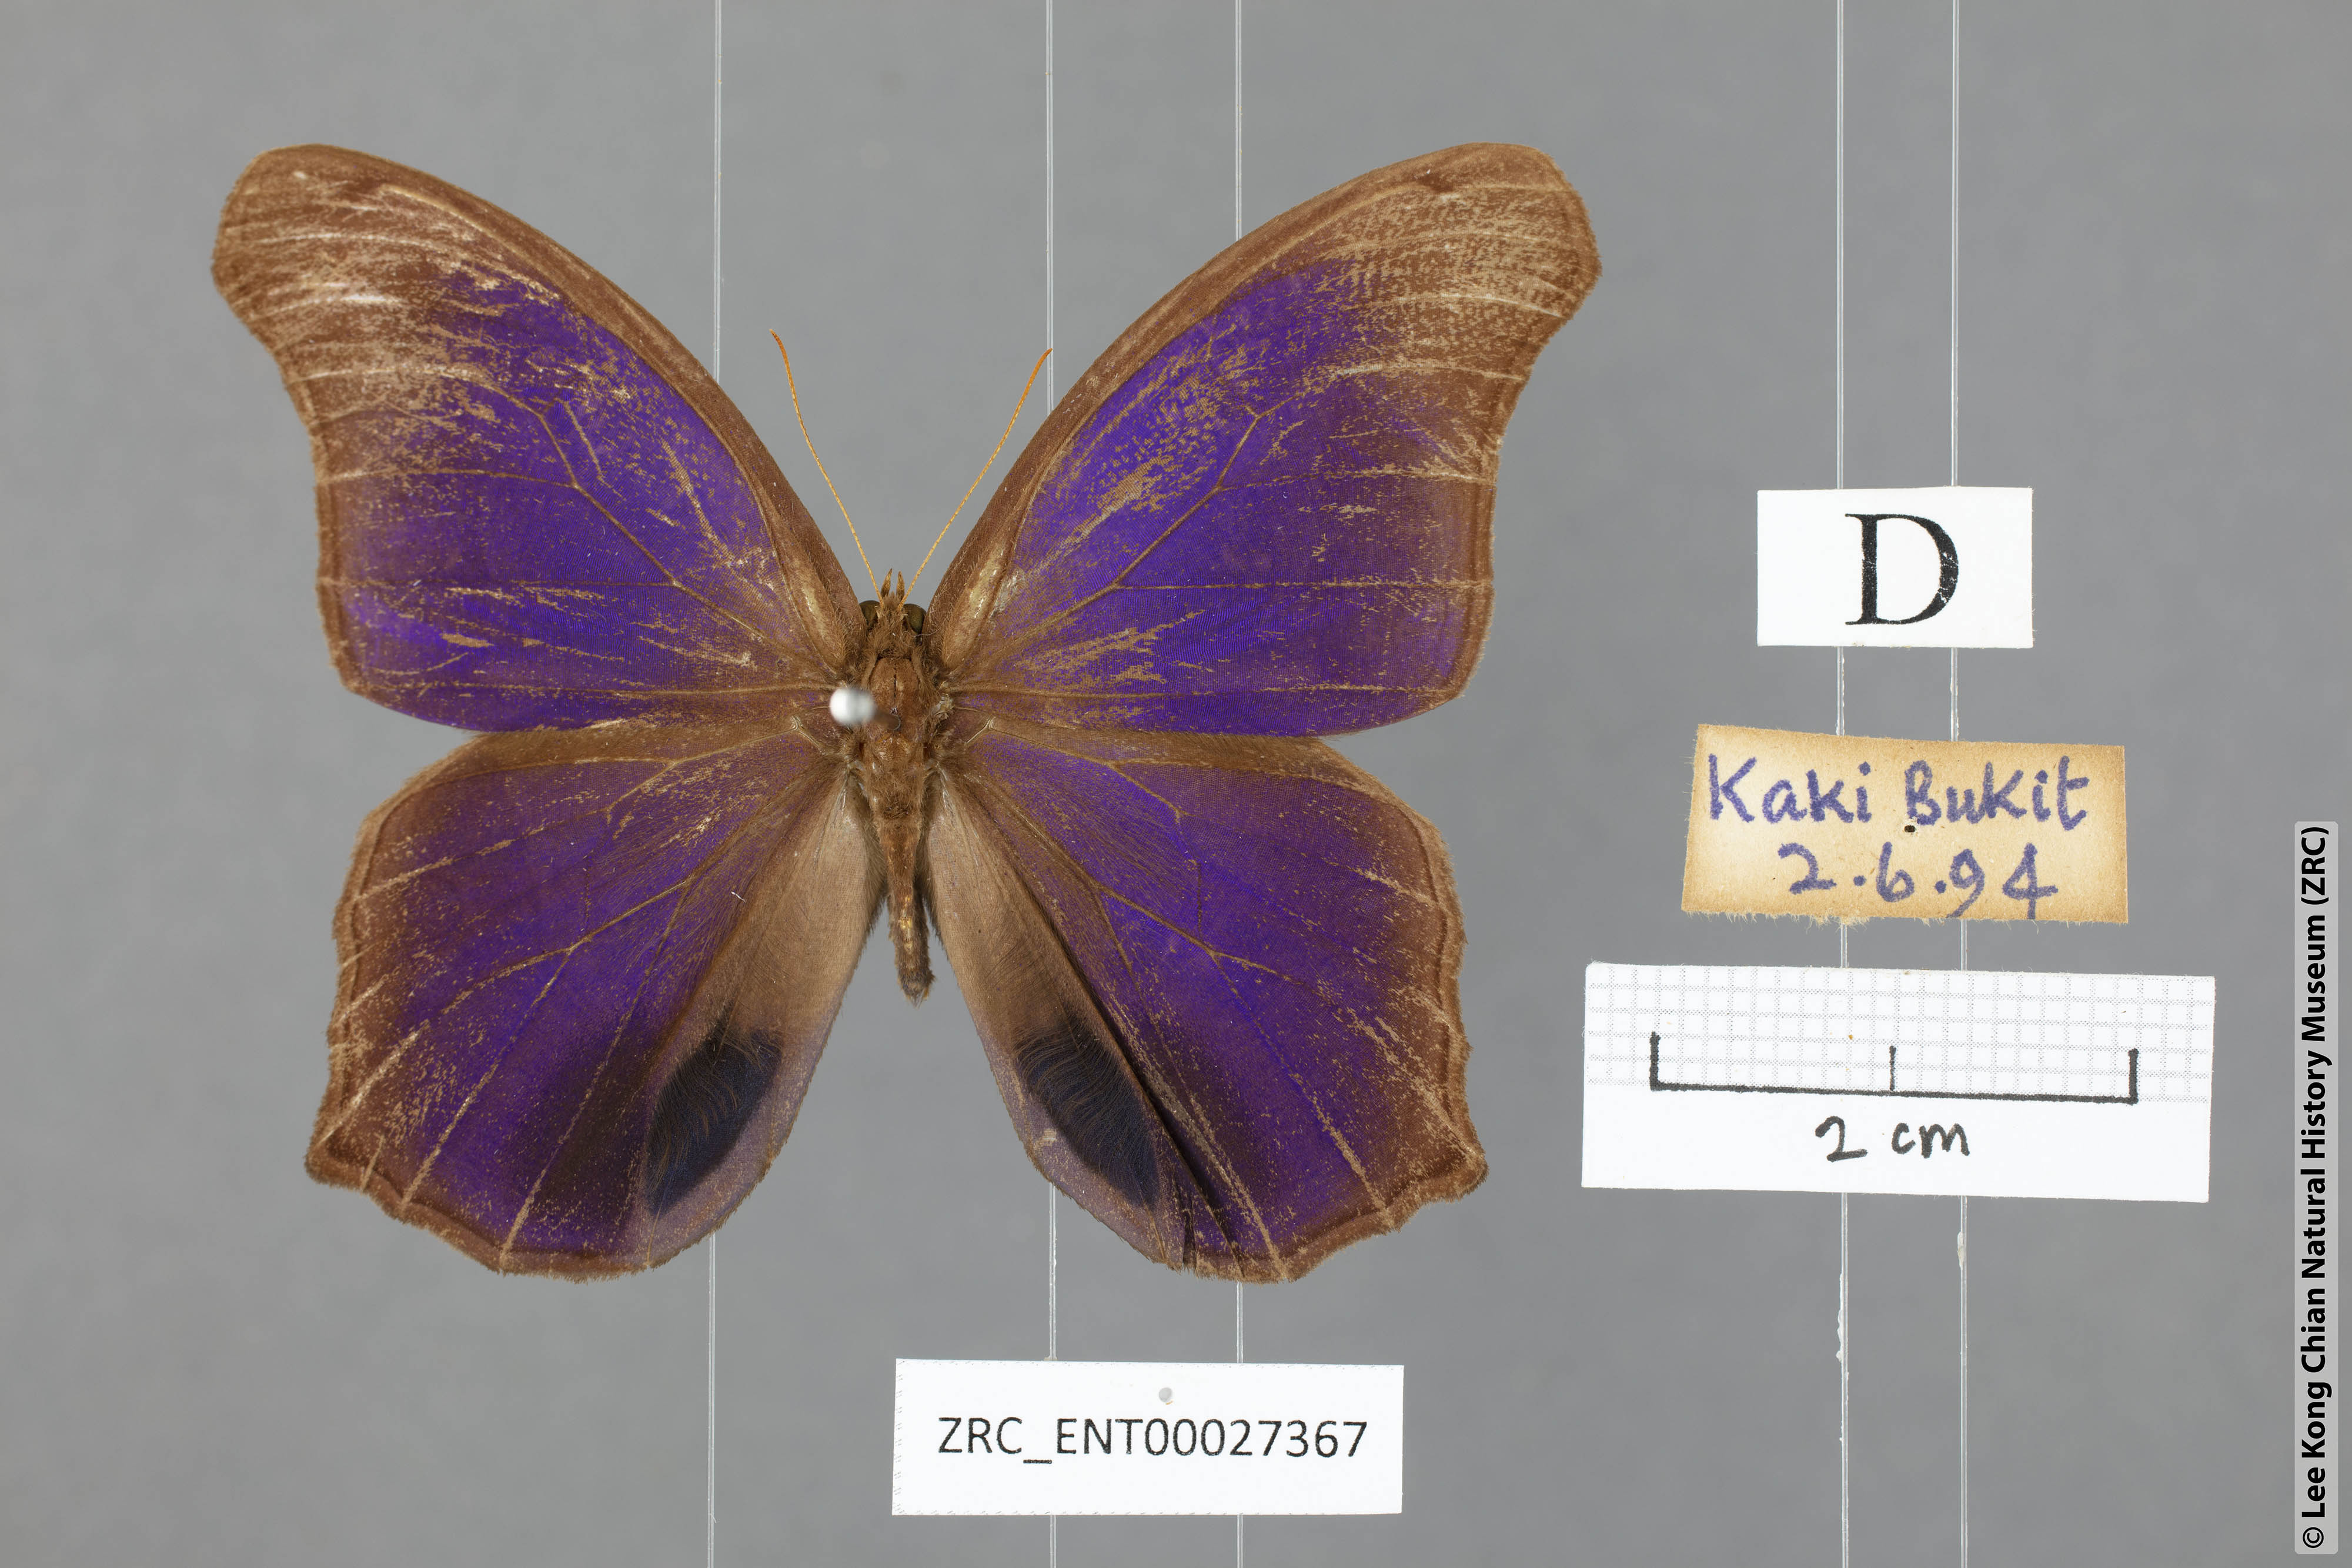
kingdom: Animalia
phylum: Arthropoda
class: Insecta
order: Lepidoptera
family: Nymphalidae
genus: Coelites
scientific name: Coelites epiminthia
